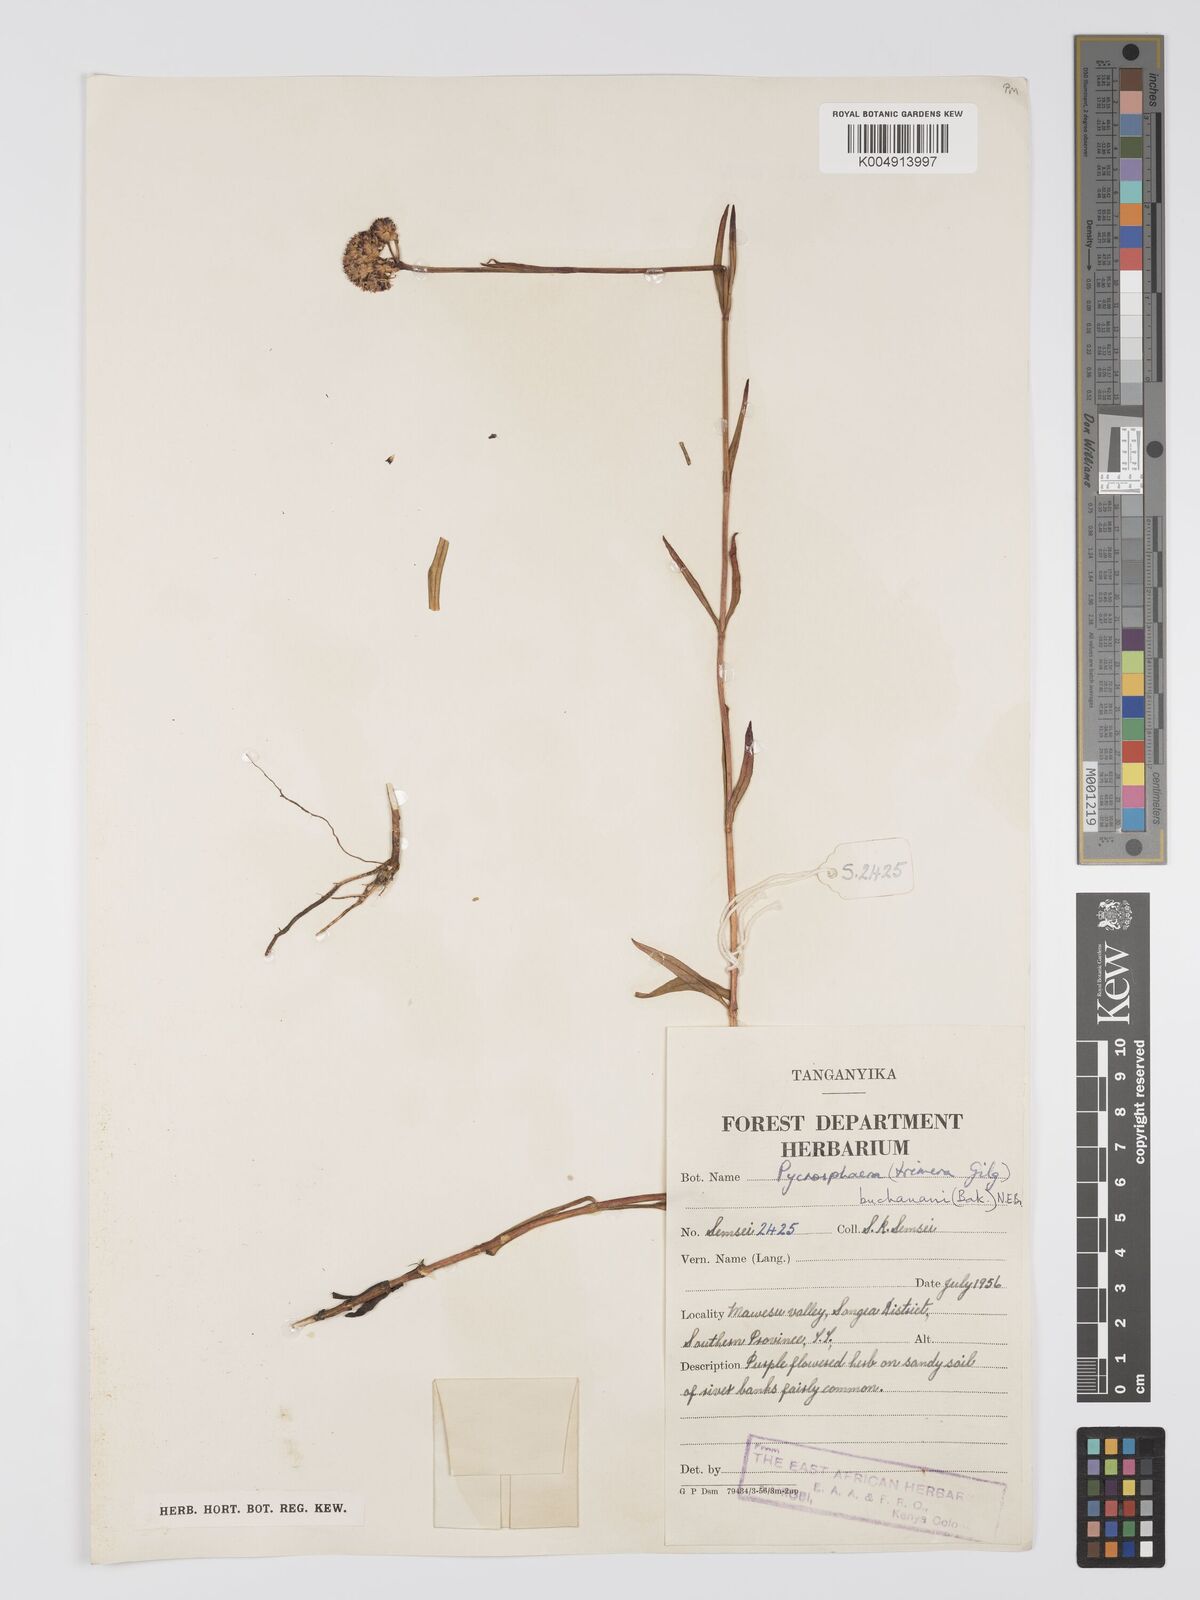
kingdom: Plantae
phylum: Tracheophyta
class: Magnoliopsida
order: Gentianales
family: Gentianaceae
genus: Pycnosphaera
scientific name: Pycnosphaera buchananii
